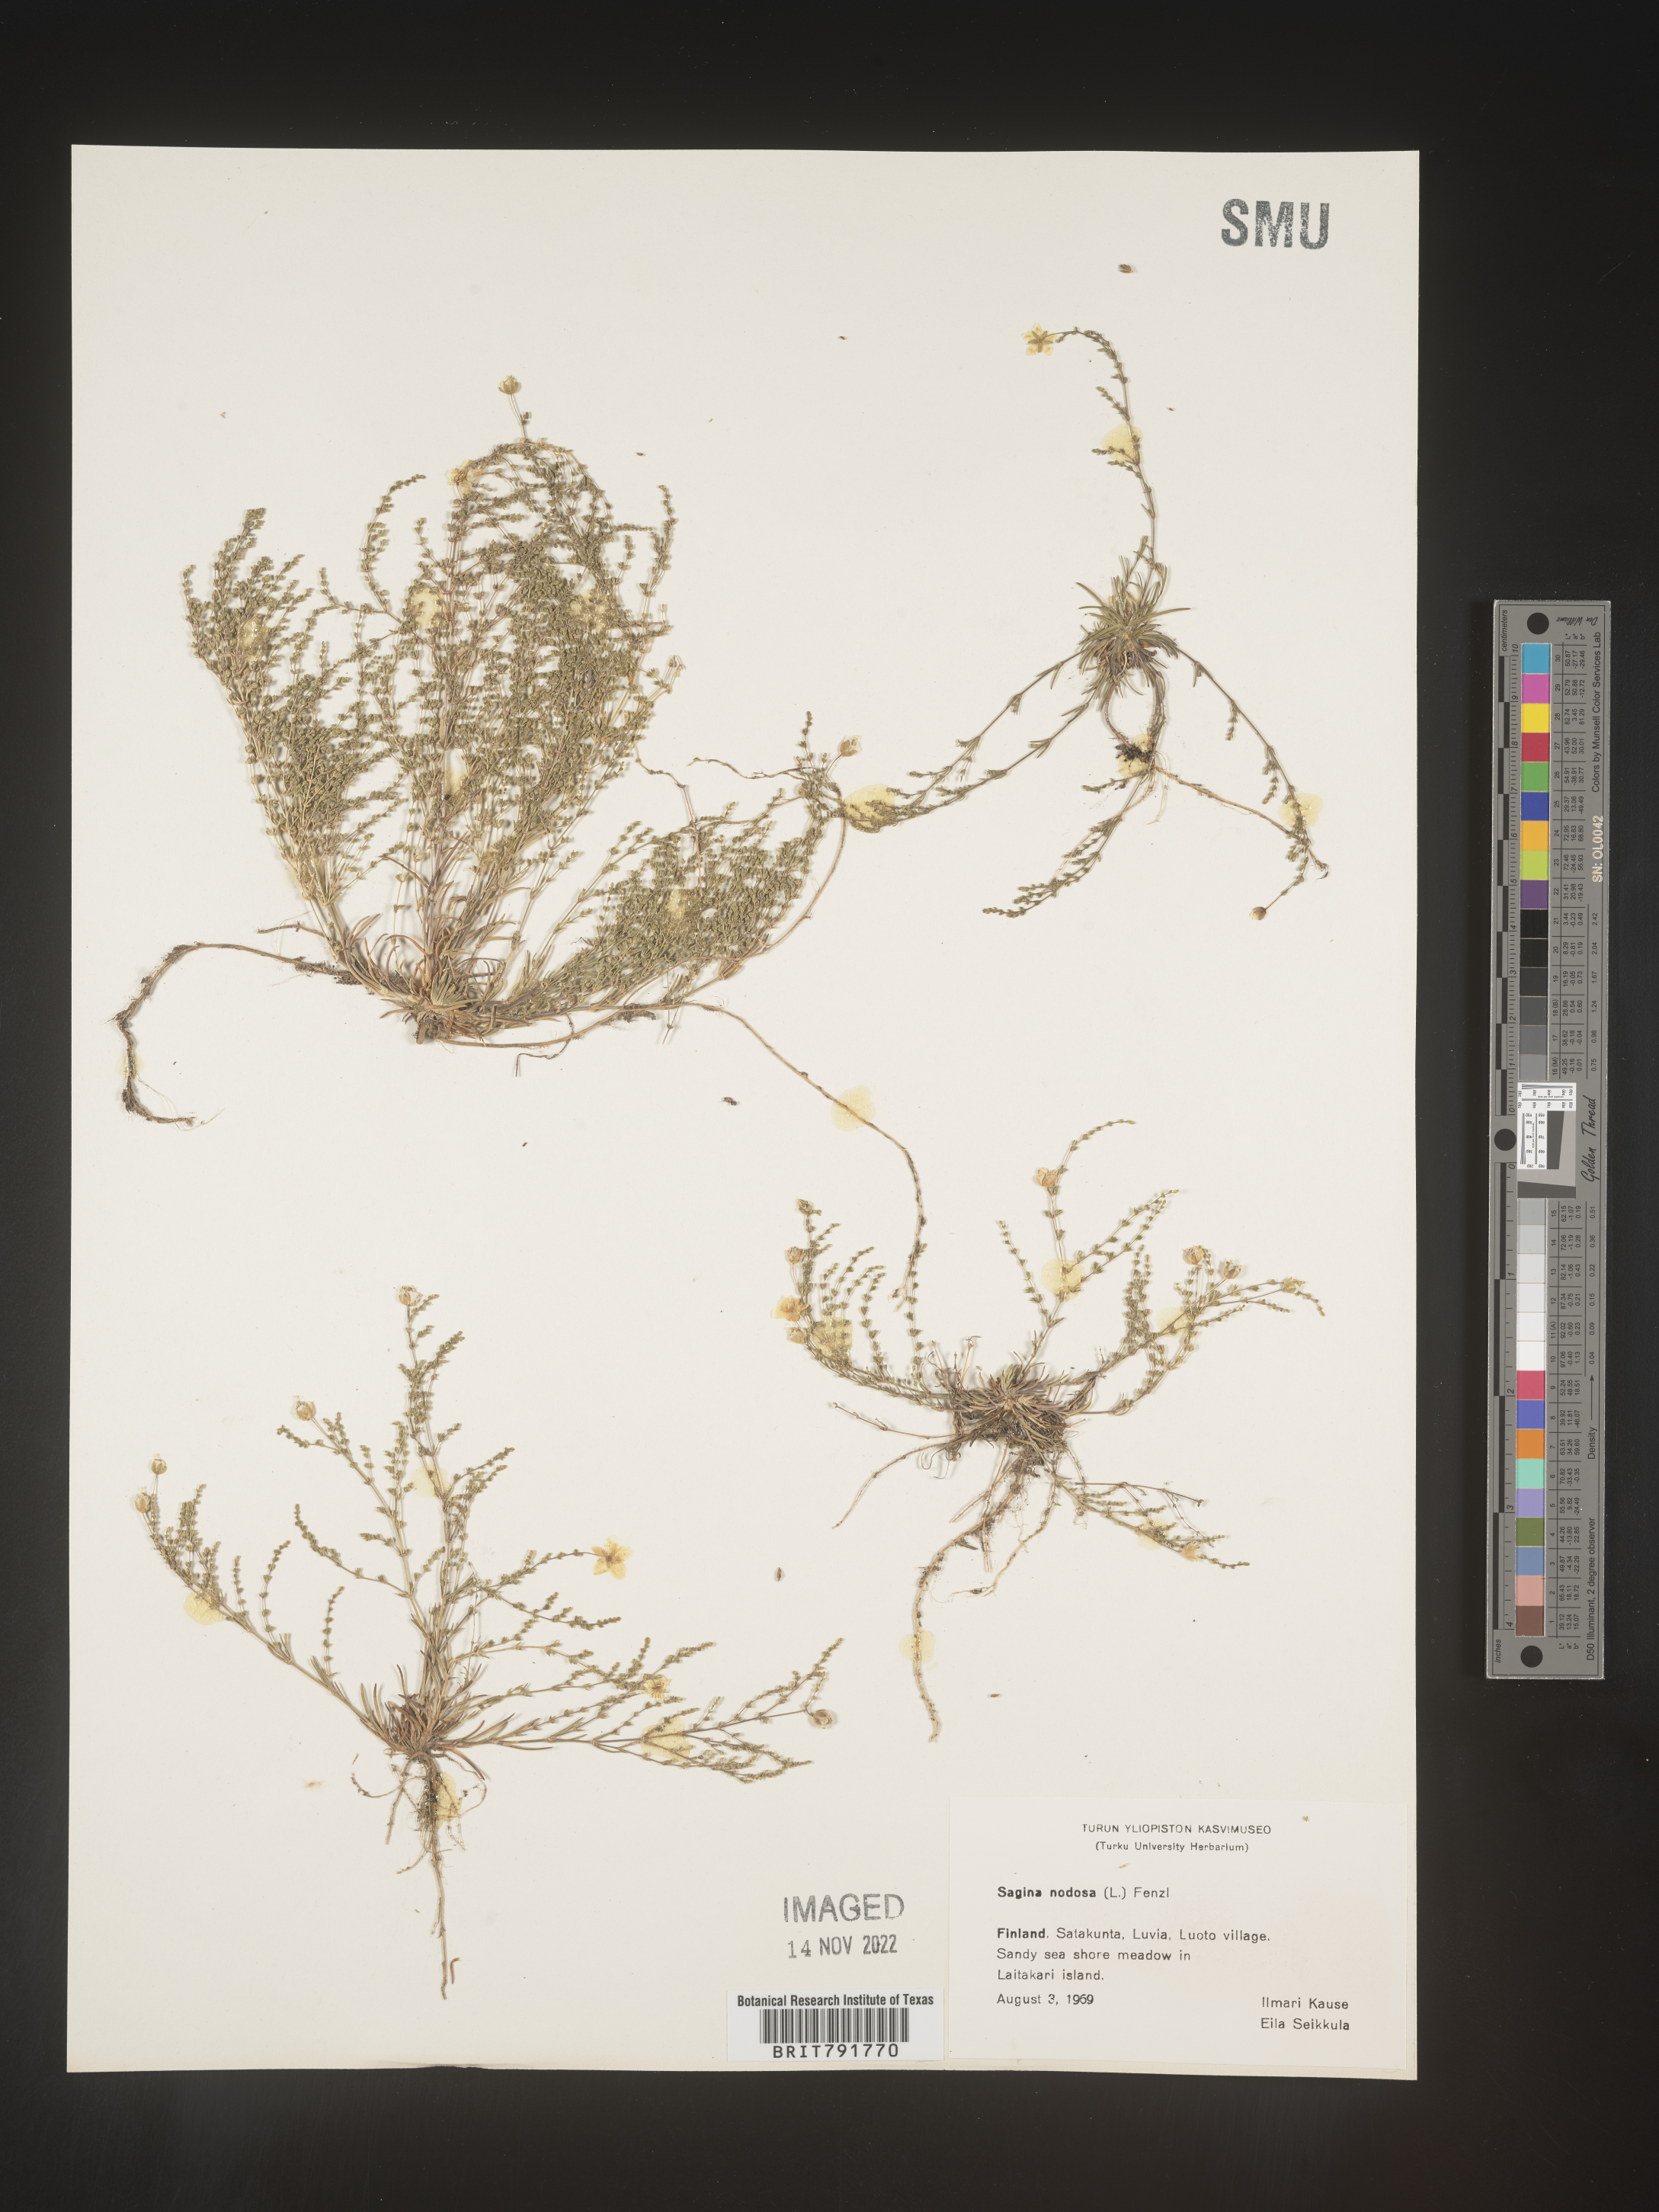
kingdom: Plantae
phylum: Tracheophyta
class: Magnoliopsida
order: Caryophyllales
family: Caryophyllaceae
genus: Sagina
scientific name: Sagina
